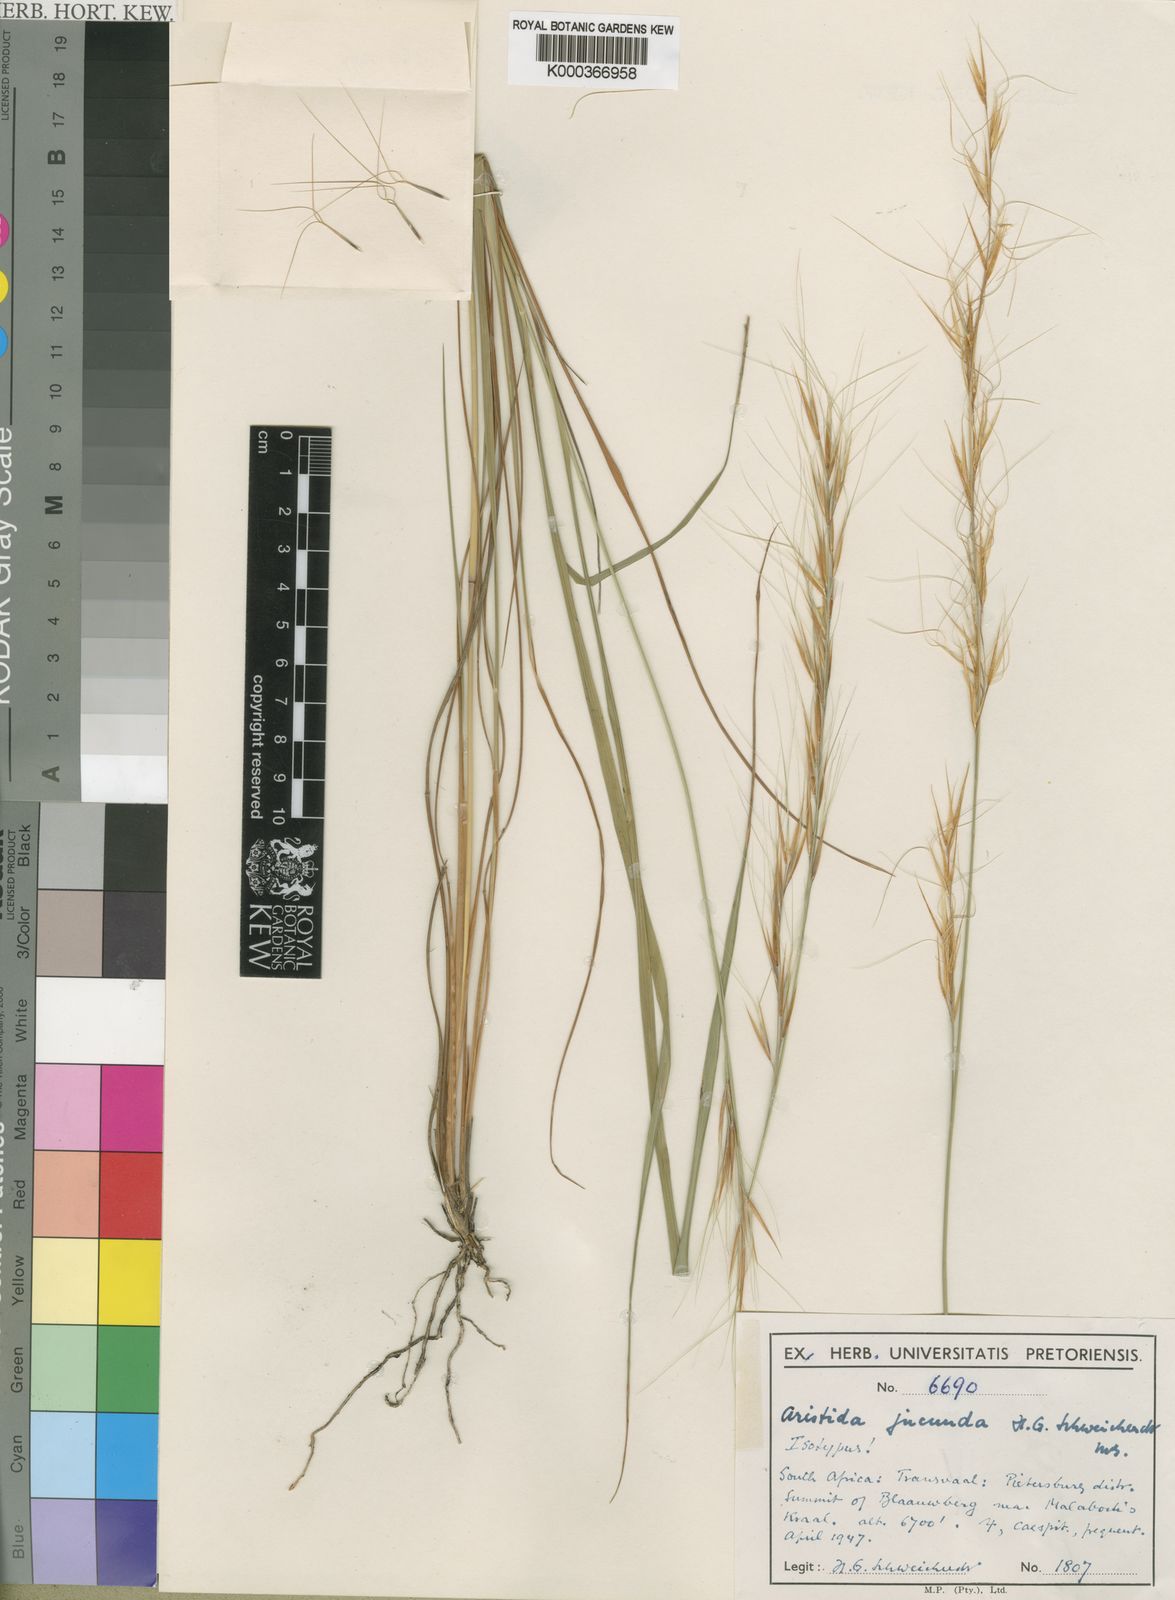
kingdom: Plantae
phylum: Tracheophyta
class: Liliopsida
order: Poales
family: Poaceae
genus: Sartidia
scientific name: Sartidia jucunda
